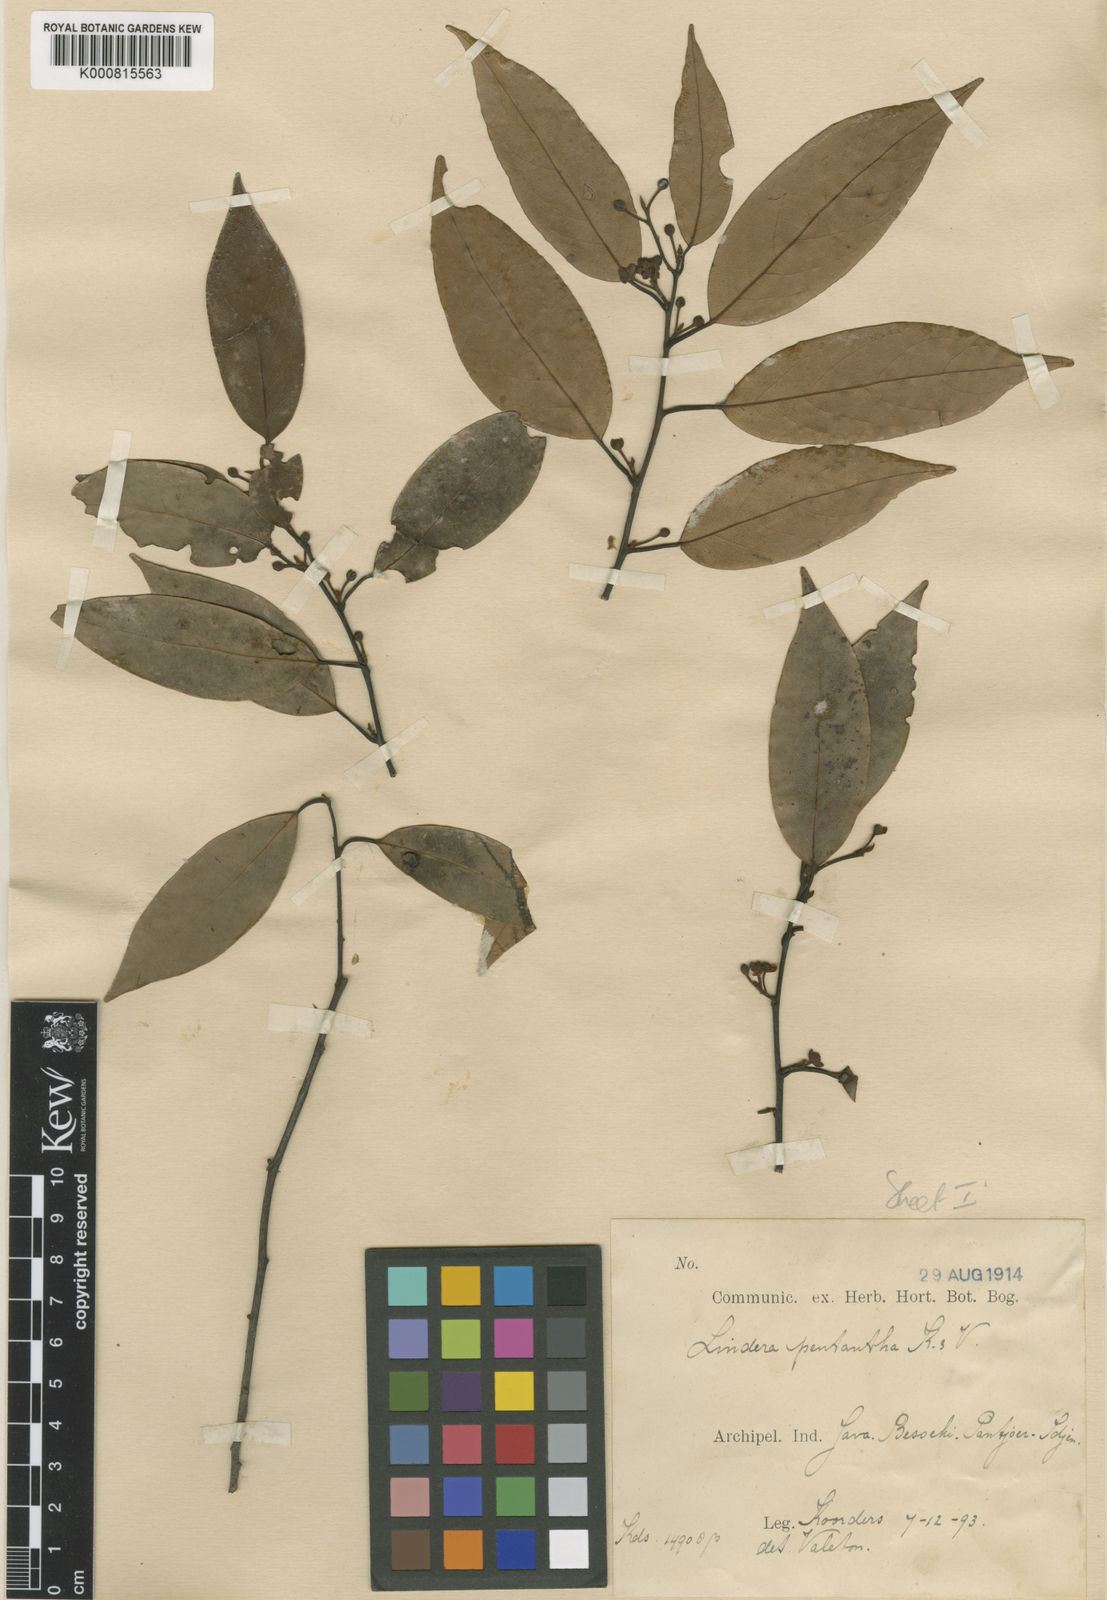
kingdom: Plantae
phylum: Tracheophyta
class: Magnoliopsida
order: Laurales
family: Lauraceae
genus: Lindera
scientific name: Lindera pentantha
